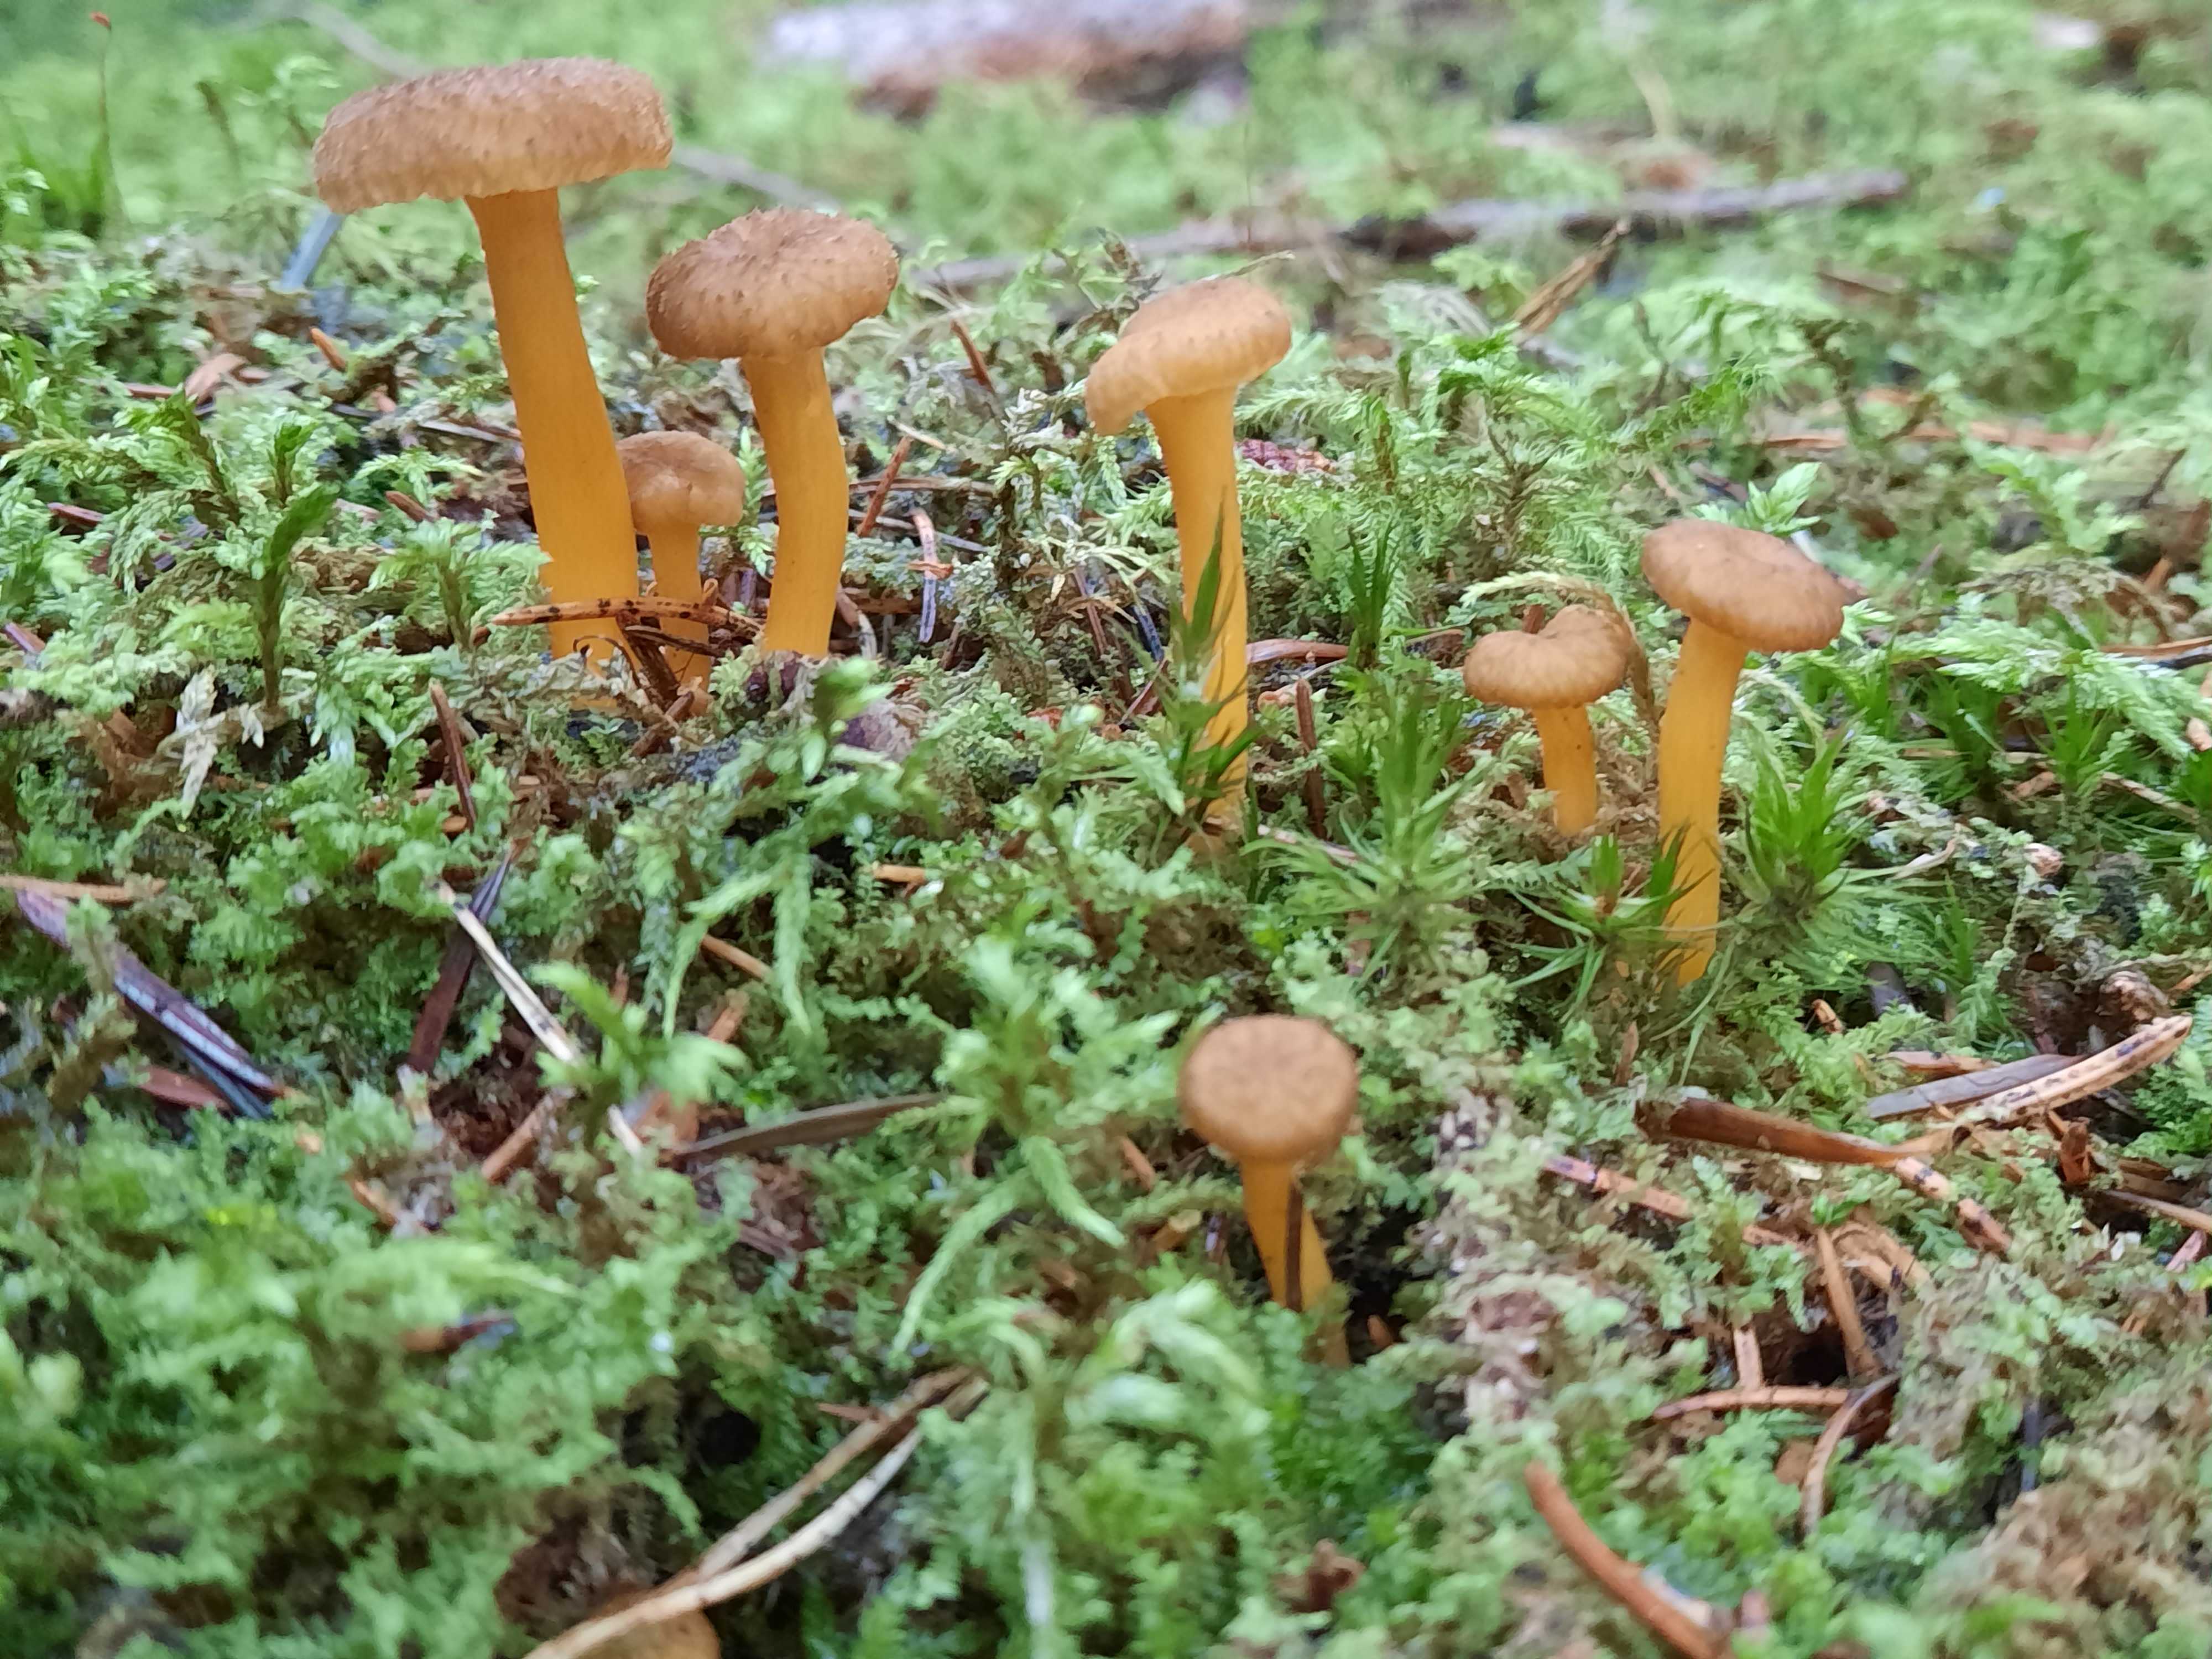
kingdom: Fungi
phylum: Basidiomycota
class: Agaricomycetes
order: Cantharellales
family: Hydnaceae
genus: Craterellus
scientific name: Craterellus tubaeformis
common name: tragt-kantarel
